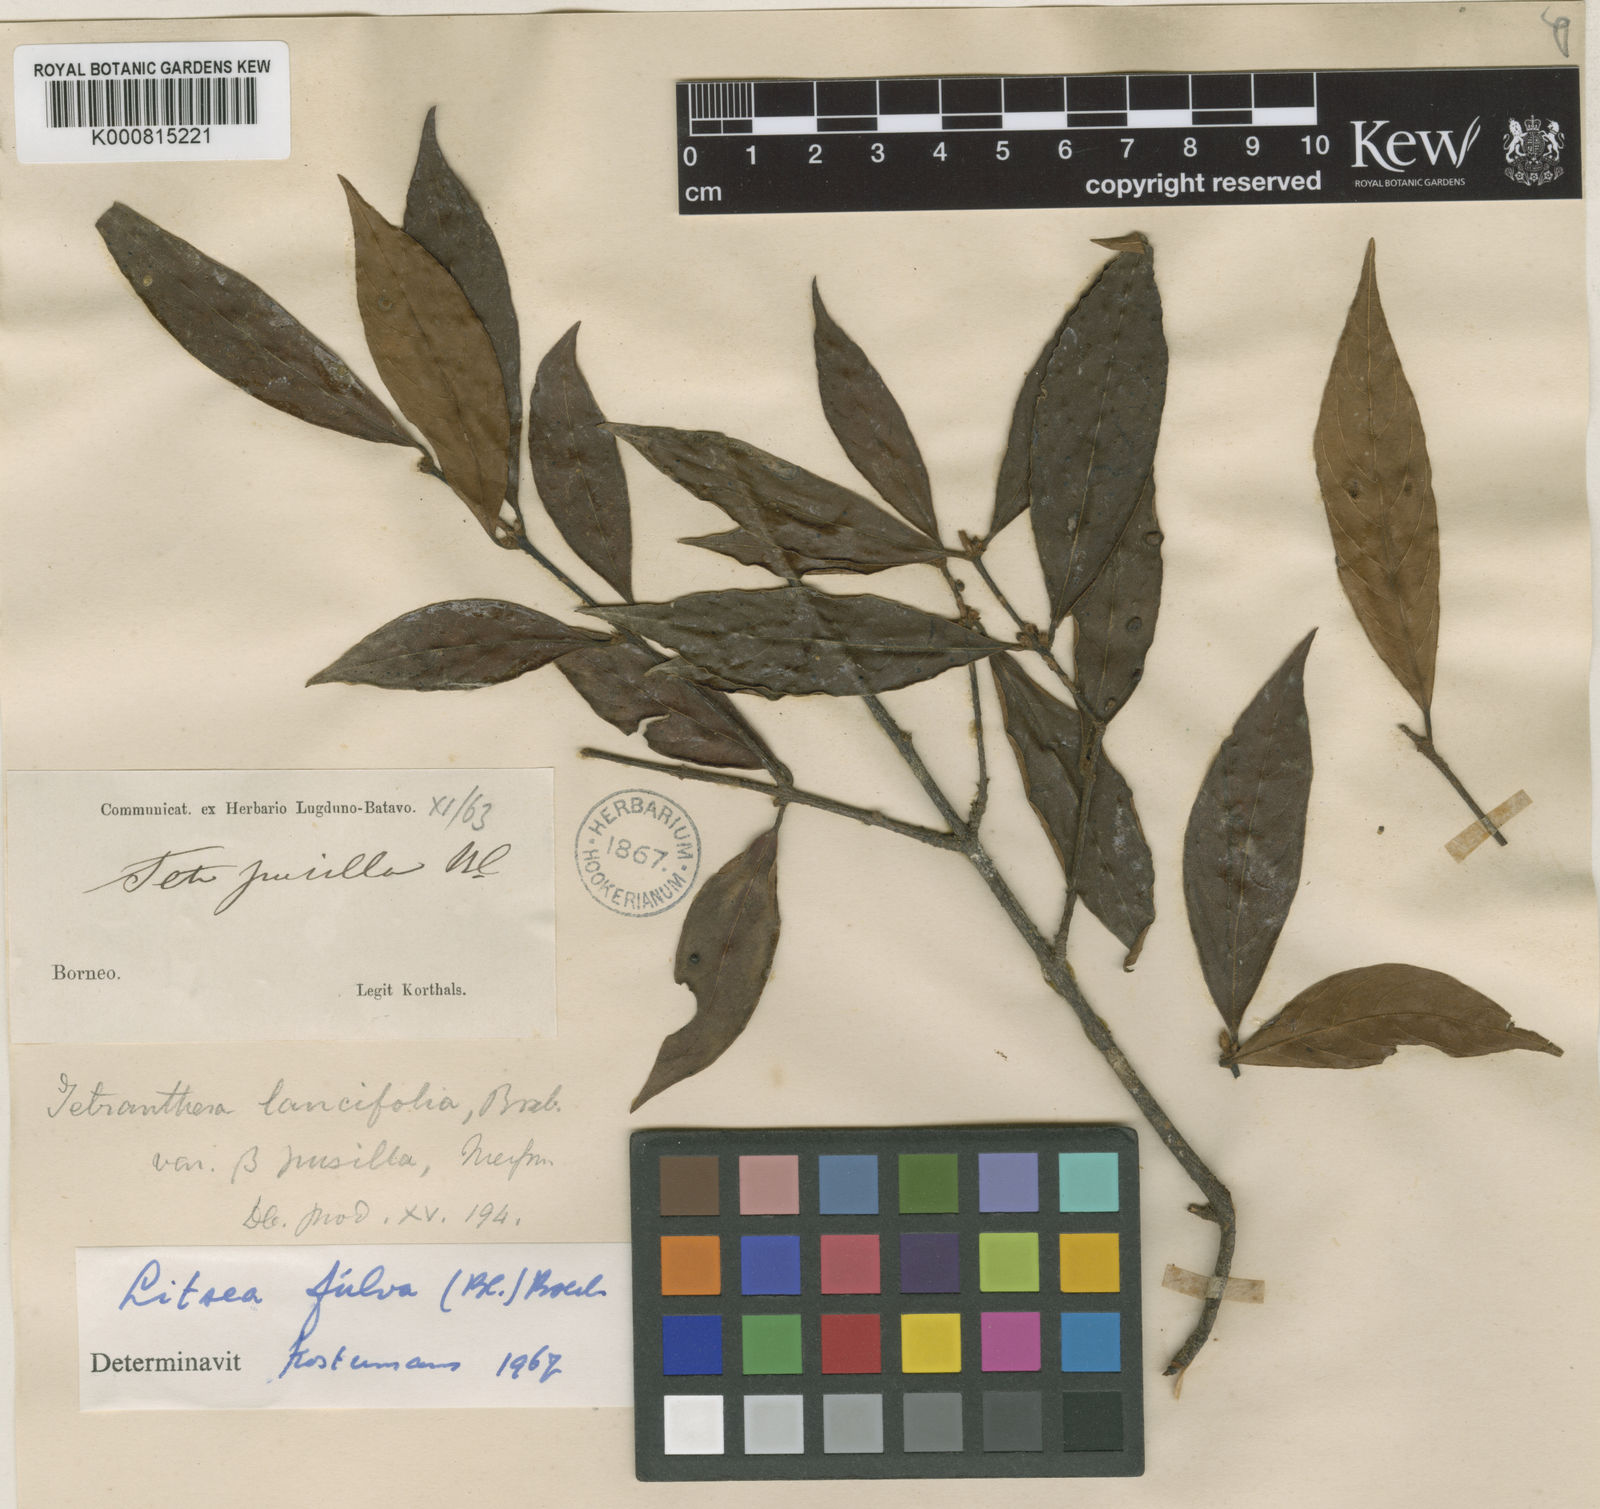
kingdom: Plantae
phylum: Tracheophyta
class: Magnoliopsida
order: Laurales
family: Lauraceae
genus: Litsea
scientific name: Litsea fulva
